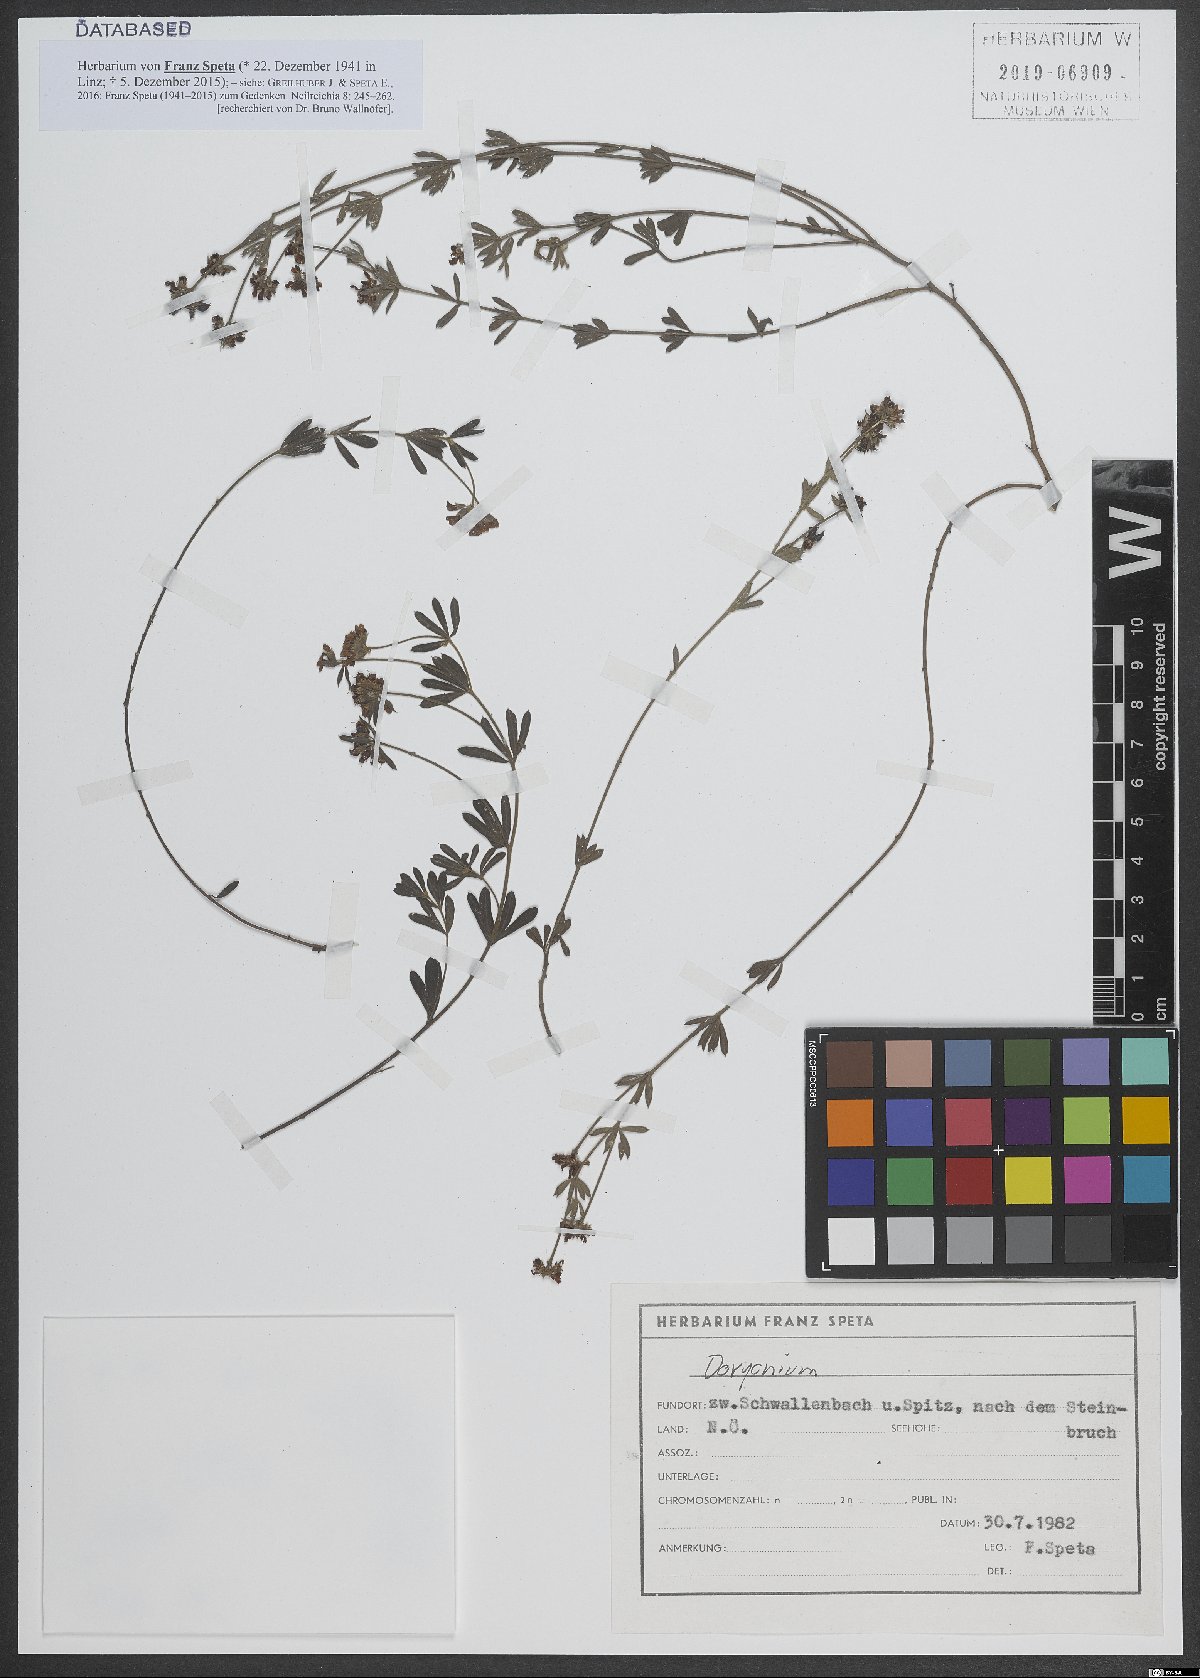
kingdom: Plantae
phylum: Tracheophyta
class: Magnoliopsida
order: Fabales
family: Fabaceae
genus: Lotus
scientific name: Lotus
